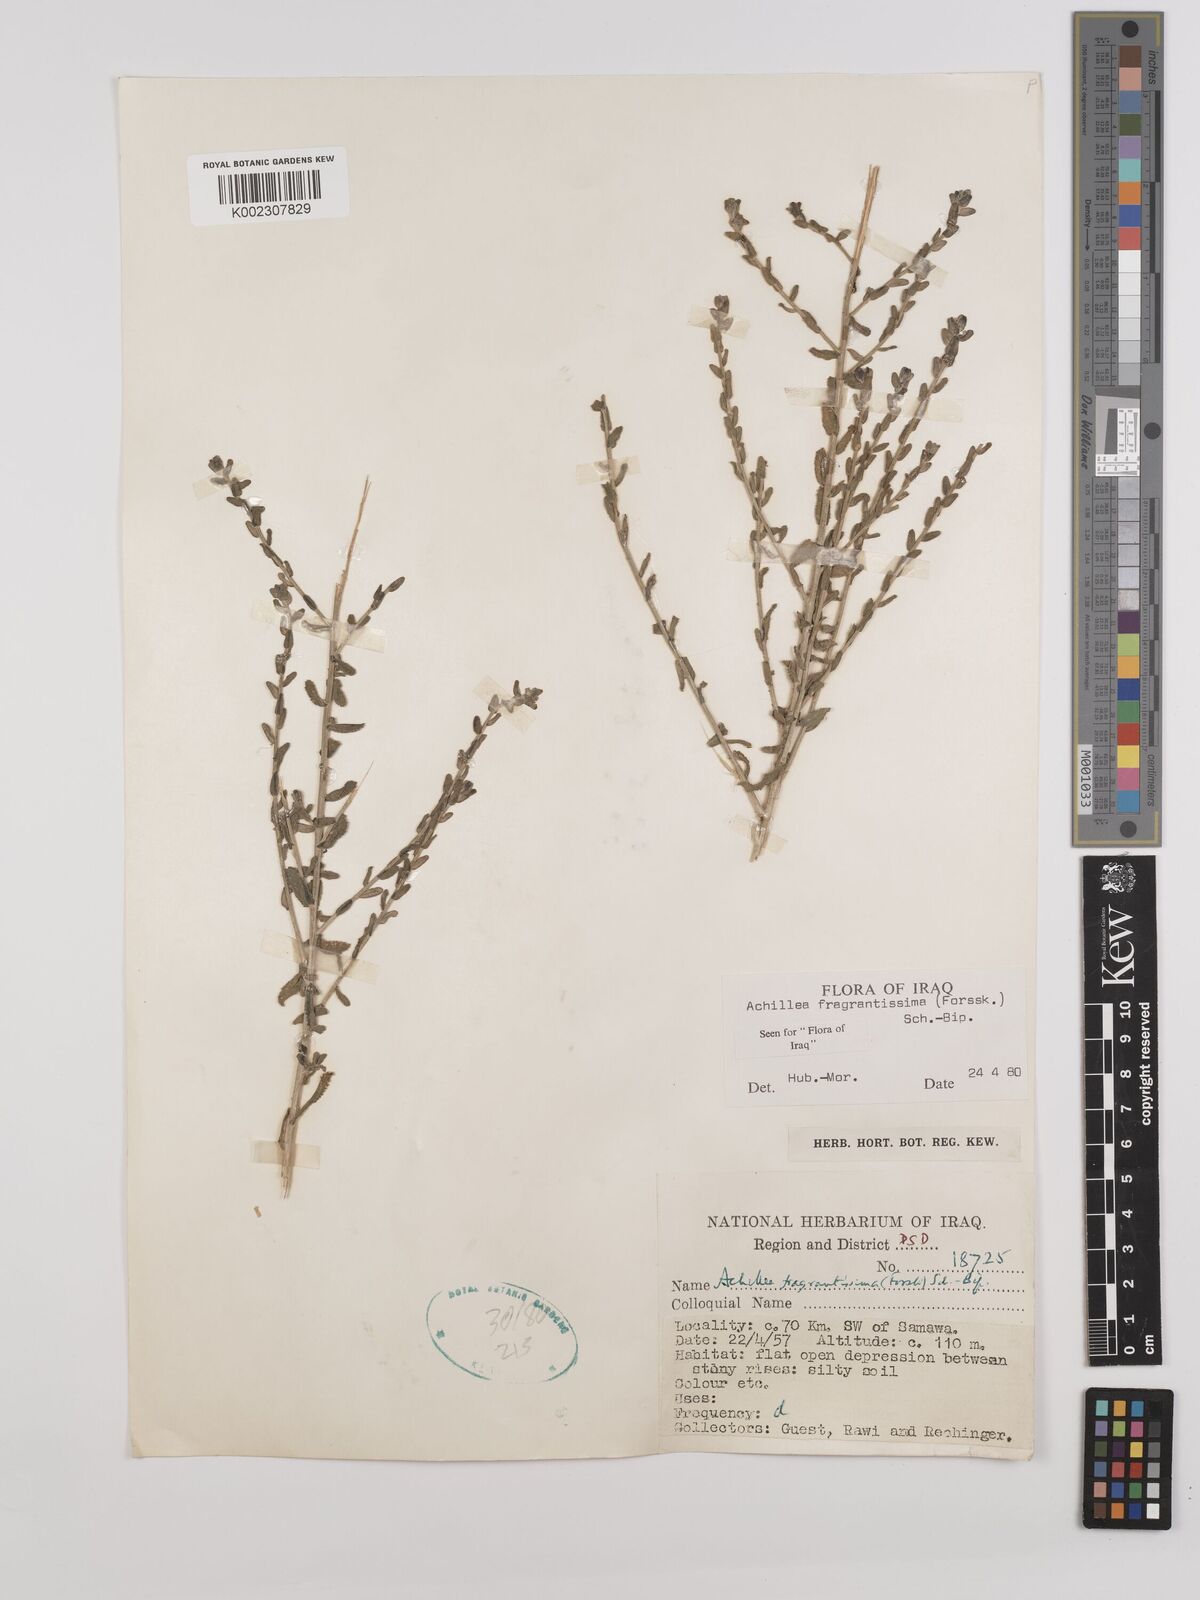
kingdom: Plantae
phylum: Tracheophyta
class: Magnoliopsida
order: Asterales
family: Asteraceae
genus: Achillea
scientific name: Achillea fragrantissima
